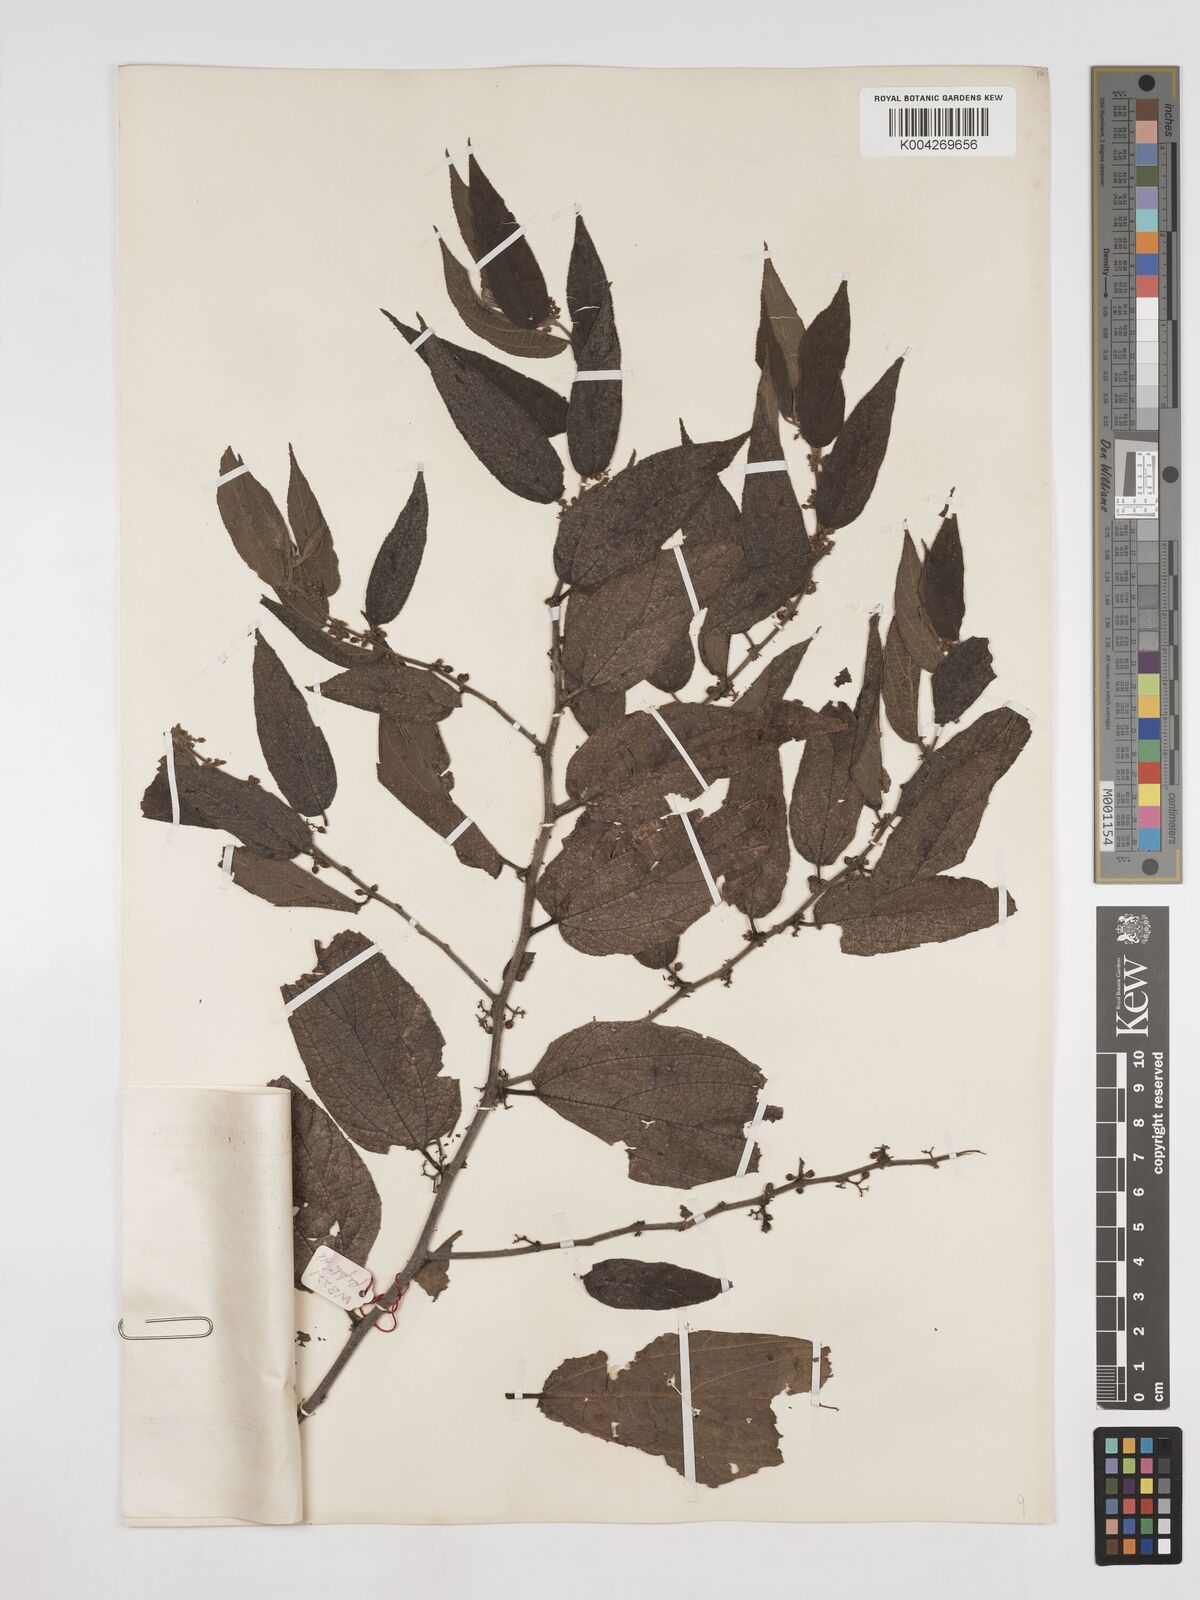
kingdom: Plantae
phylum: Tracheophyta
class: Magnoliopsida
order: Rosales
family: Cannabaceae
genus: Trema
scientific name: Trema micranthum
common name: Jamaican nettletree
